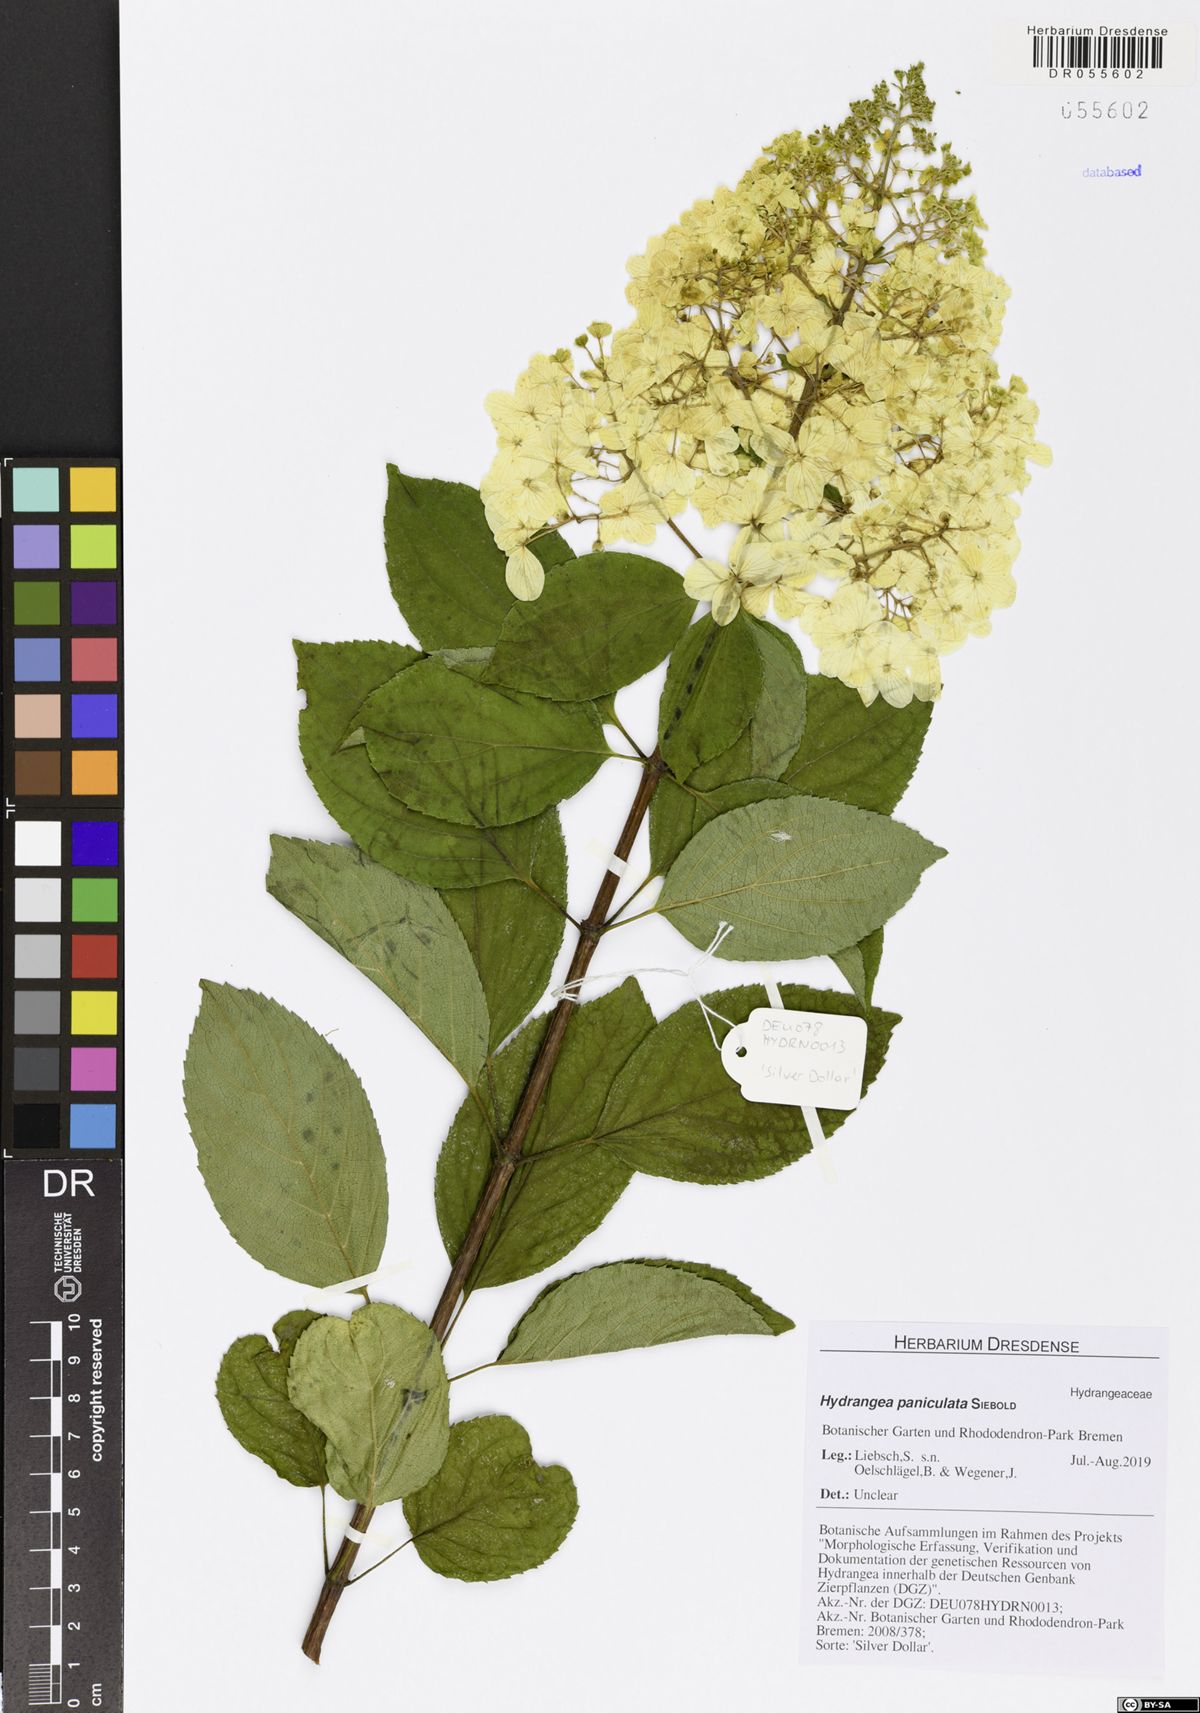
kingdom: Plantae
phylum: Tracheophyta
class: Magnoliopsida
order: Cornales
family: Hydrangeaceae
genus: Hydrangea
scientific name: Hydrangea paniculata
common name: Panicled hydrangea
